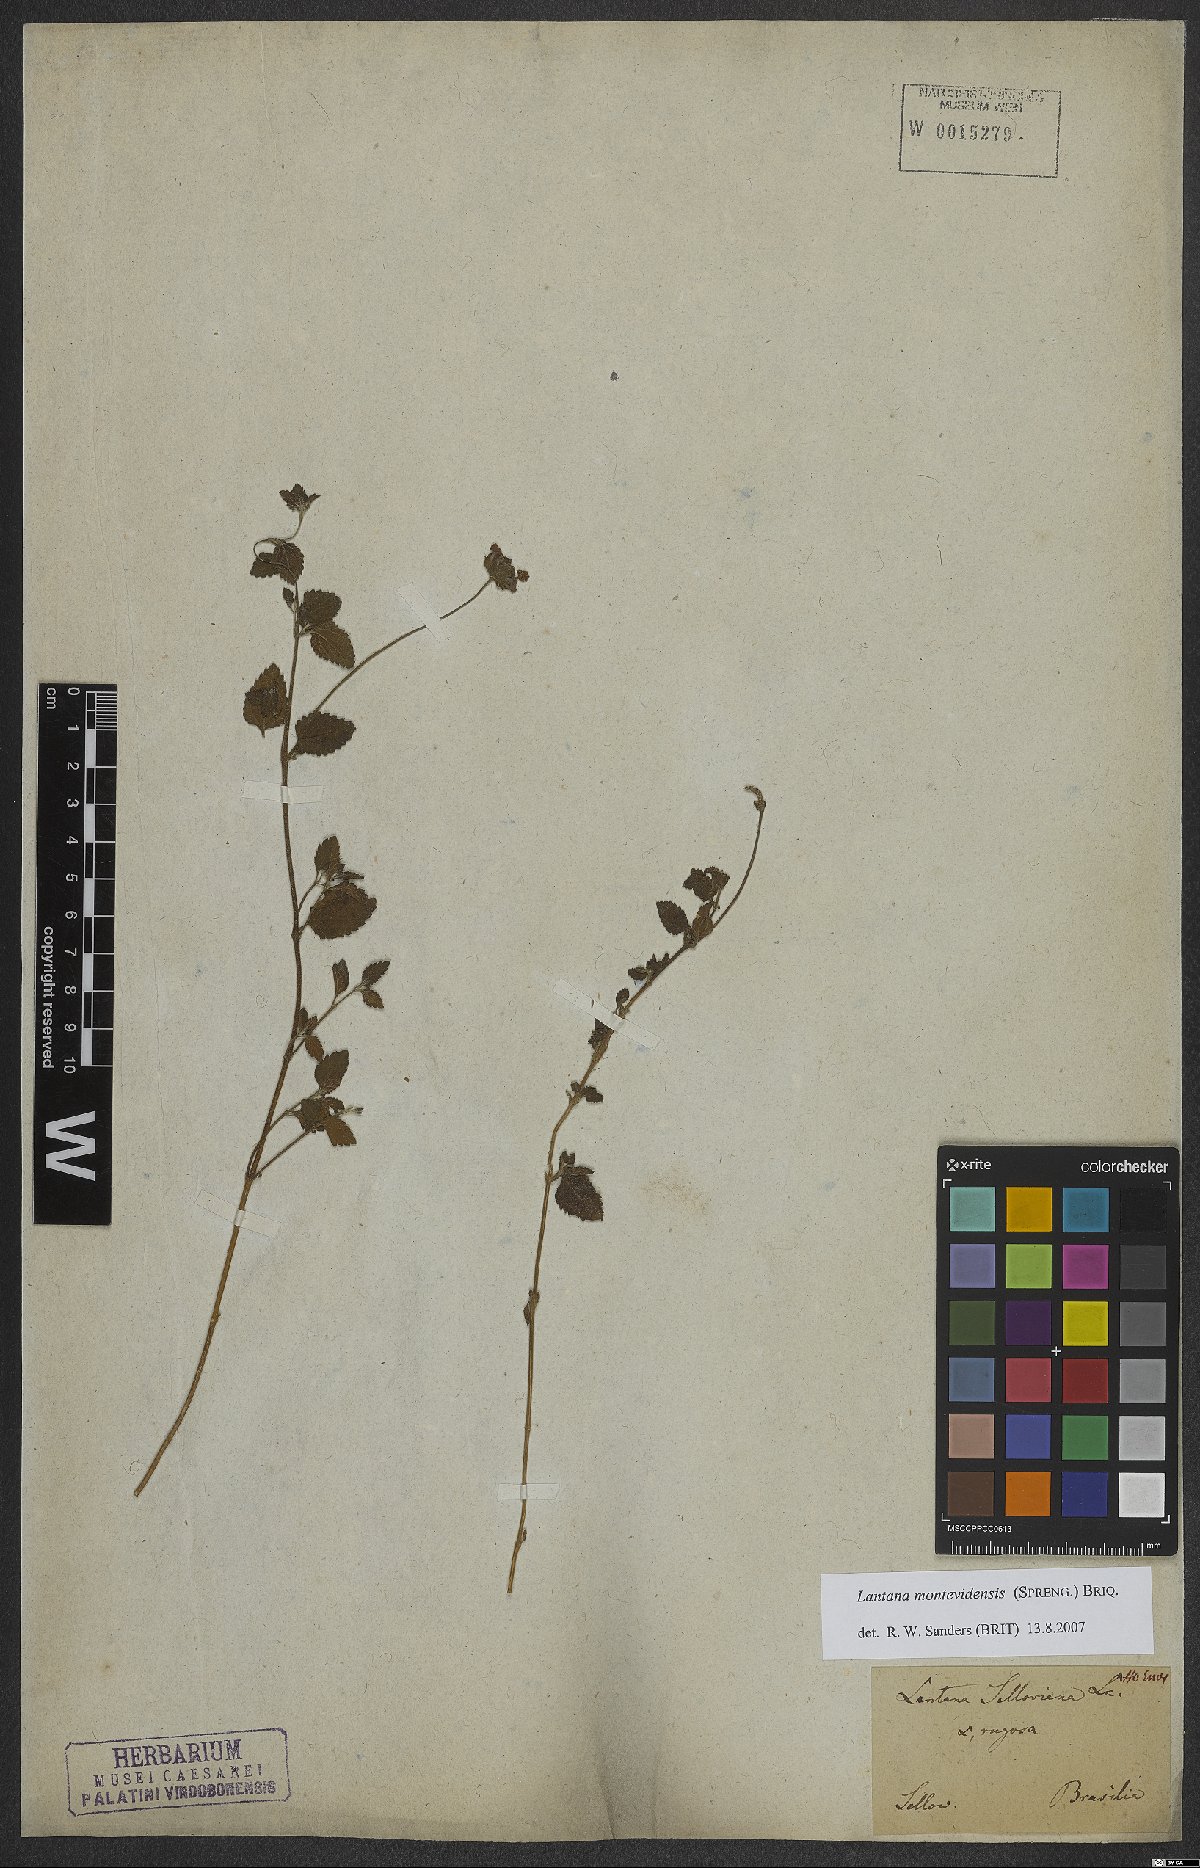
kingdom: Plantae
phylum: Tracheophyta
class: Magnoliopsida
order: Lamiales
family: Verbenaceae
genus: Lantana
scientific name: Lantana montevidensis
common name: Trailing shrubverbena
